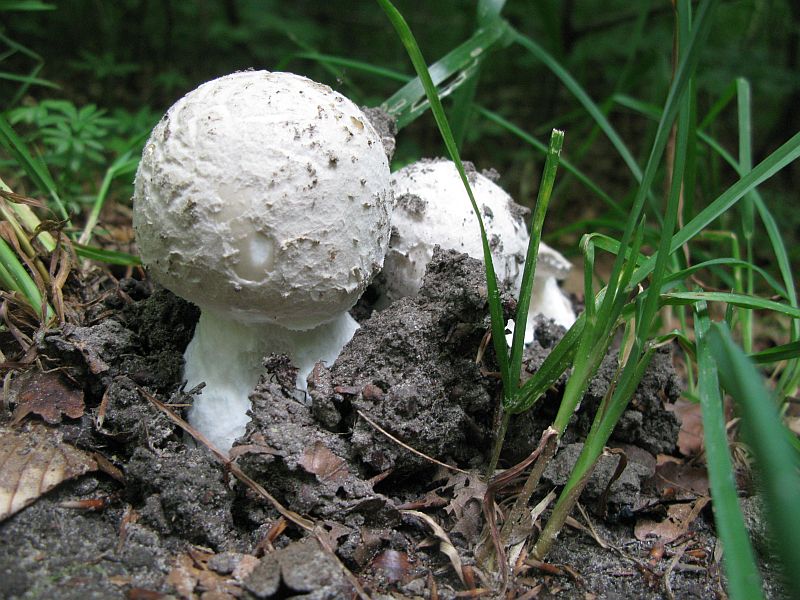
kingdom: Fungi
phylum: Basidiomycota
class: Agaricomycetes
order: Agaricales
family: Amanitaceae
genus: Amanita
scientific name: Amanita
